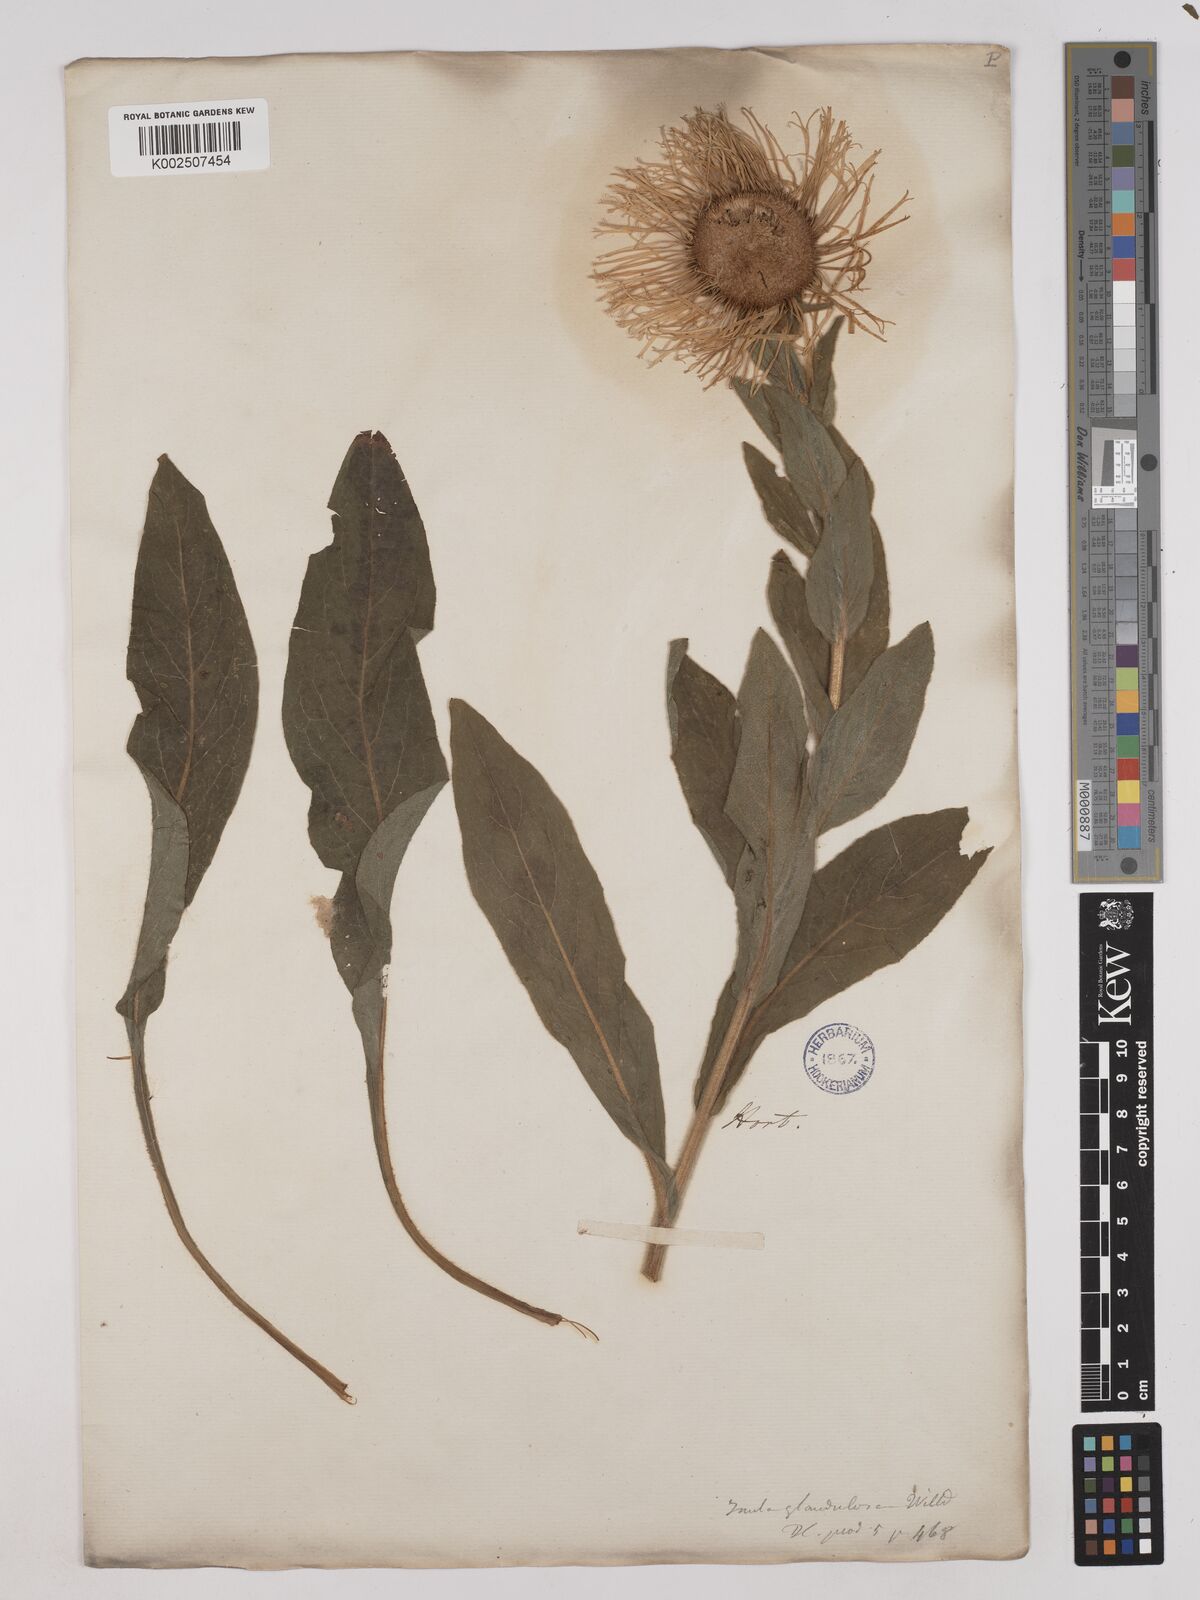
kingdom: Plantae
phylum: Tracheophyta
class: Magnoliopsida
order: Asterales
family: Asteraceae
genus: Pentanema
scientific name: Pentanema orientale
